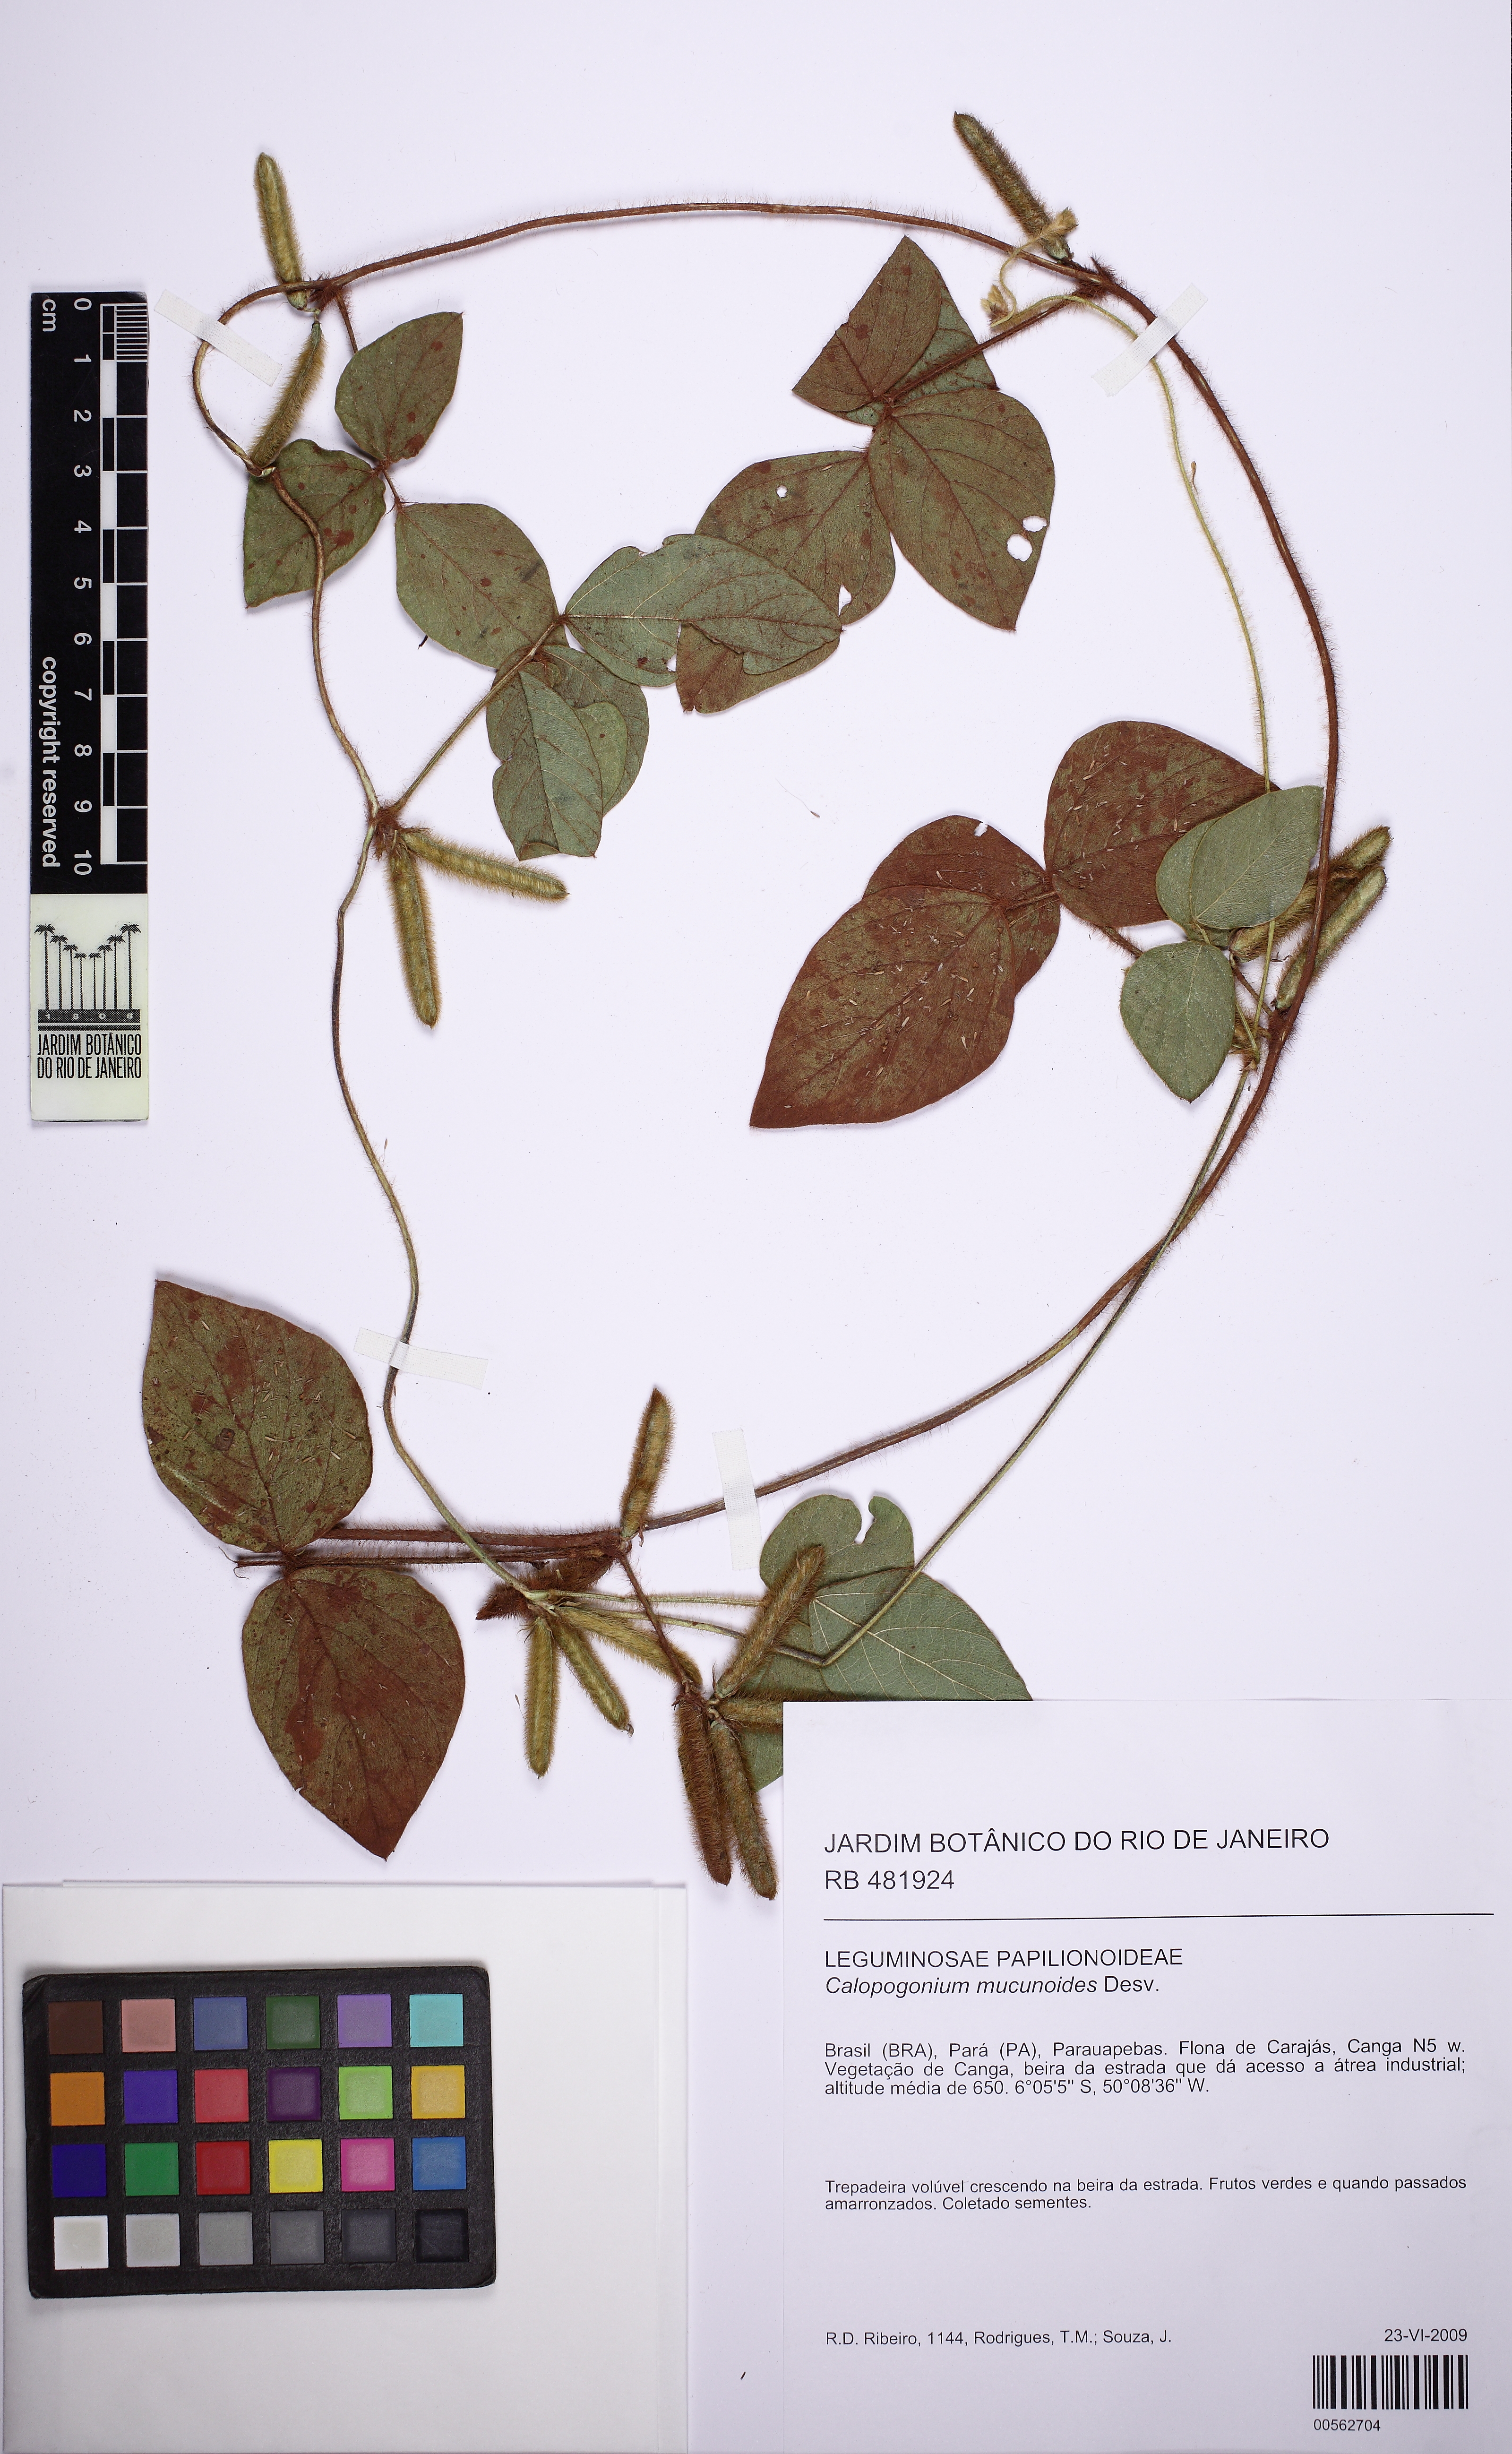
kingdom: Plantae
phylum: Tracheophyta
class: Magnoliopsida
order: Fabales
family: Fabaceae
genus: Calopogonium
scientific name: Calopogonium mucunoides
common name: Calopo
